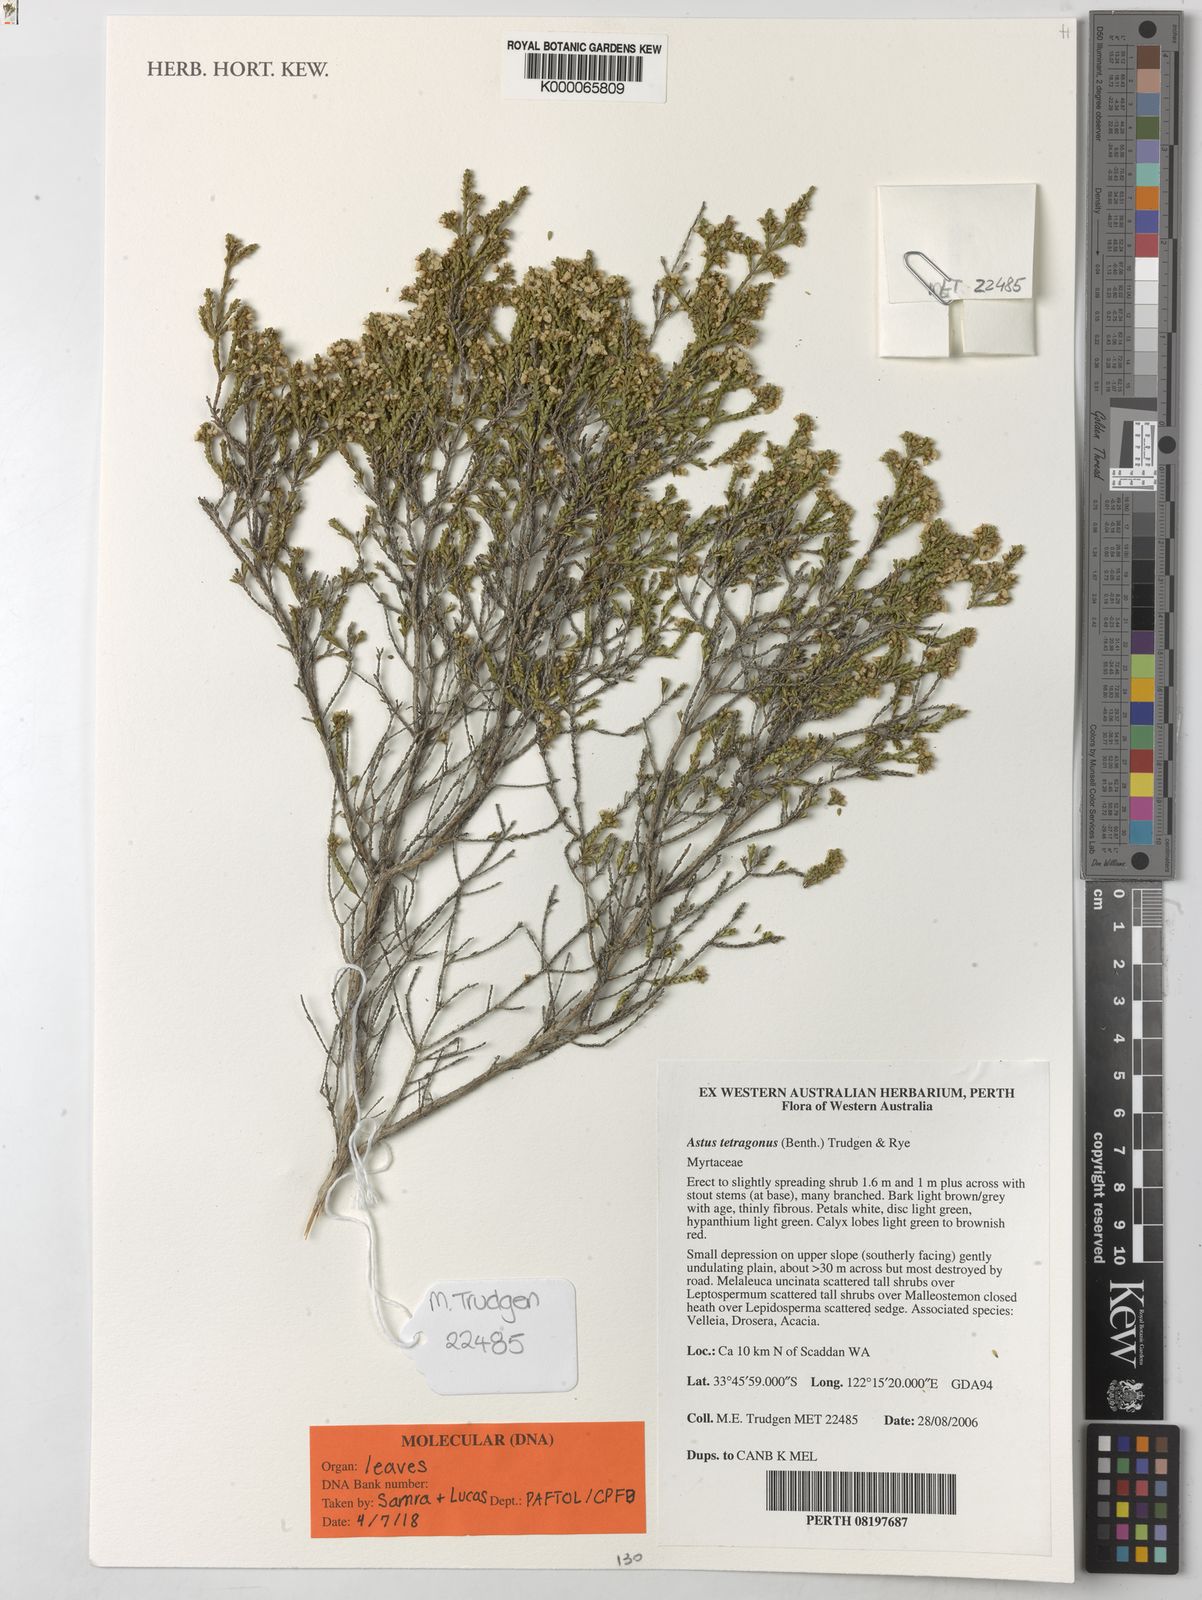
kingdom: Plantae
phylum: Tracheophyta
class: Magnoliopsida
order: Myrtales
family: Myrtaceae
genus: Astus
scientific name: Astus tetragonus
